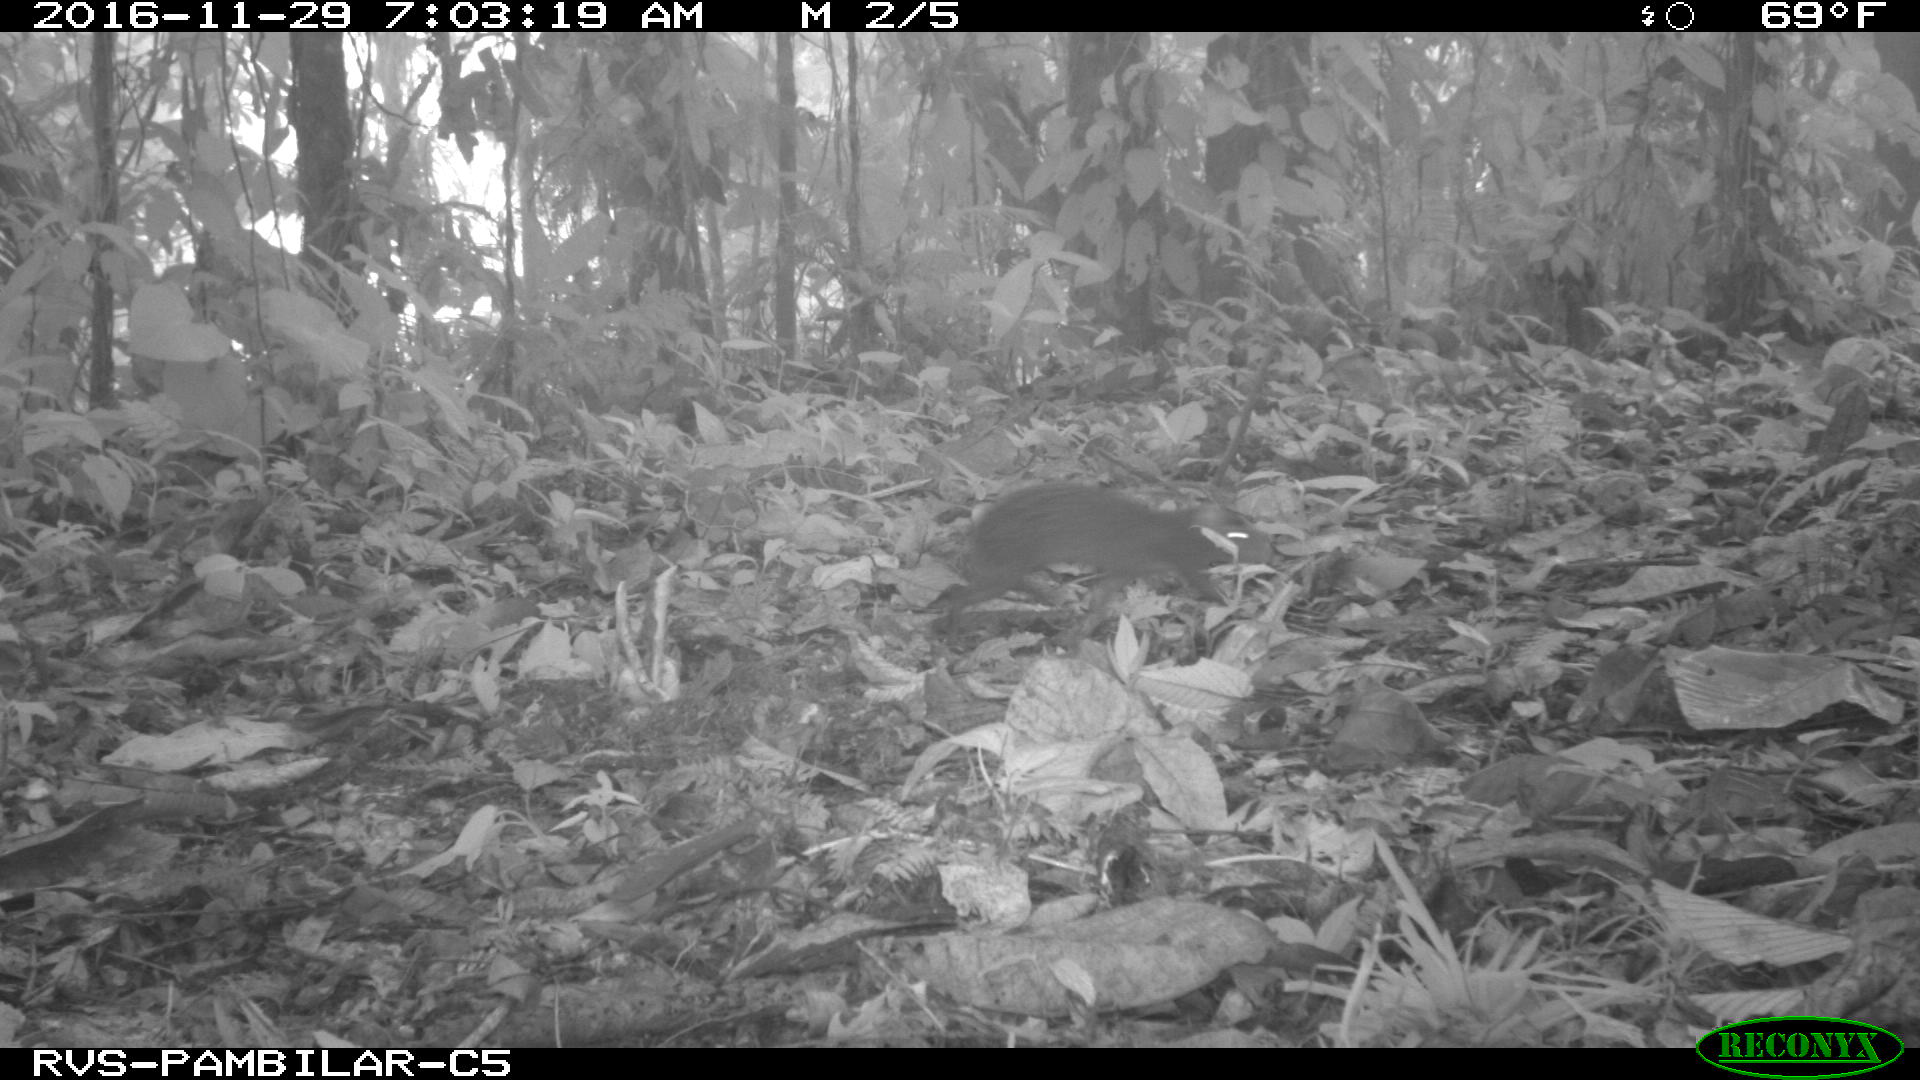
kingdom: Animalia
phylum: Chordata
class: Mammalia
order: Rodentia
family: Dasyproctidae
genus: Dasyprocta
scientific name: Dasyprocta punctata
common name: Central american agouti
